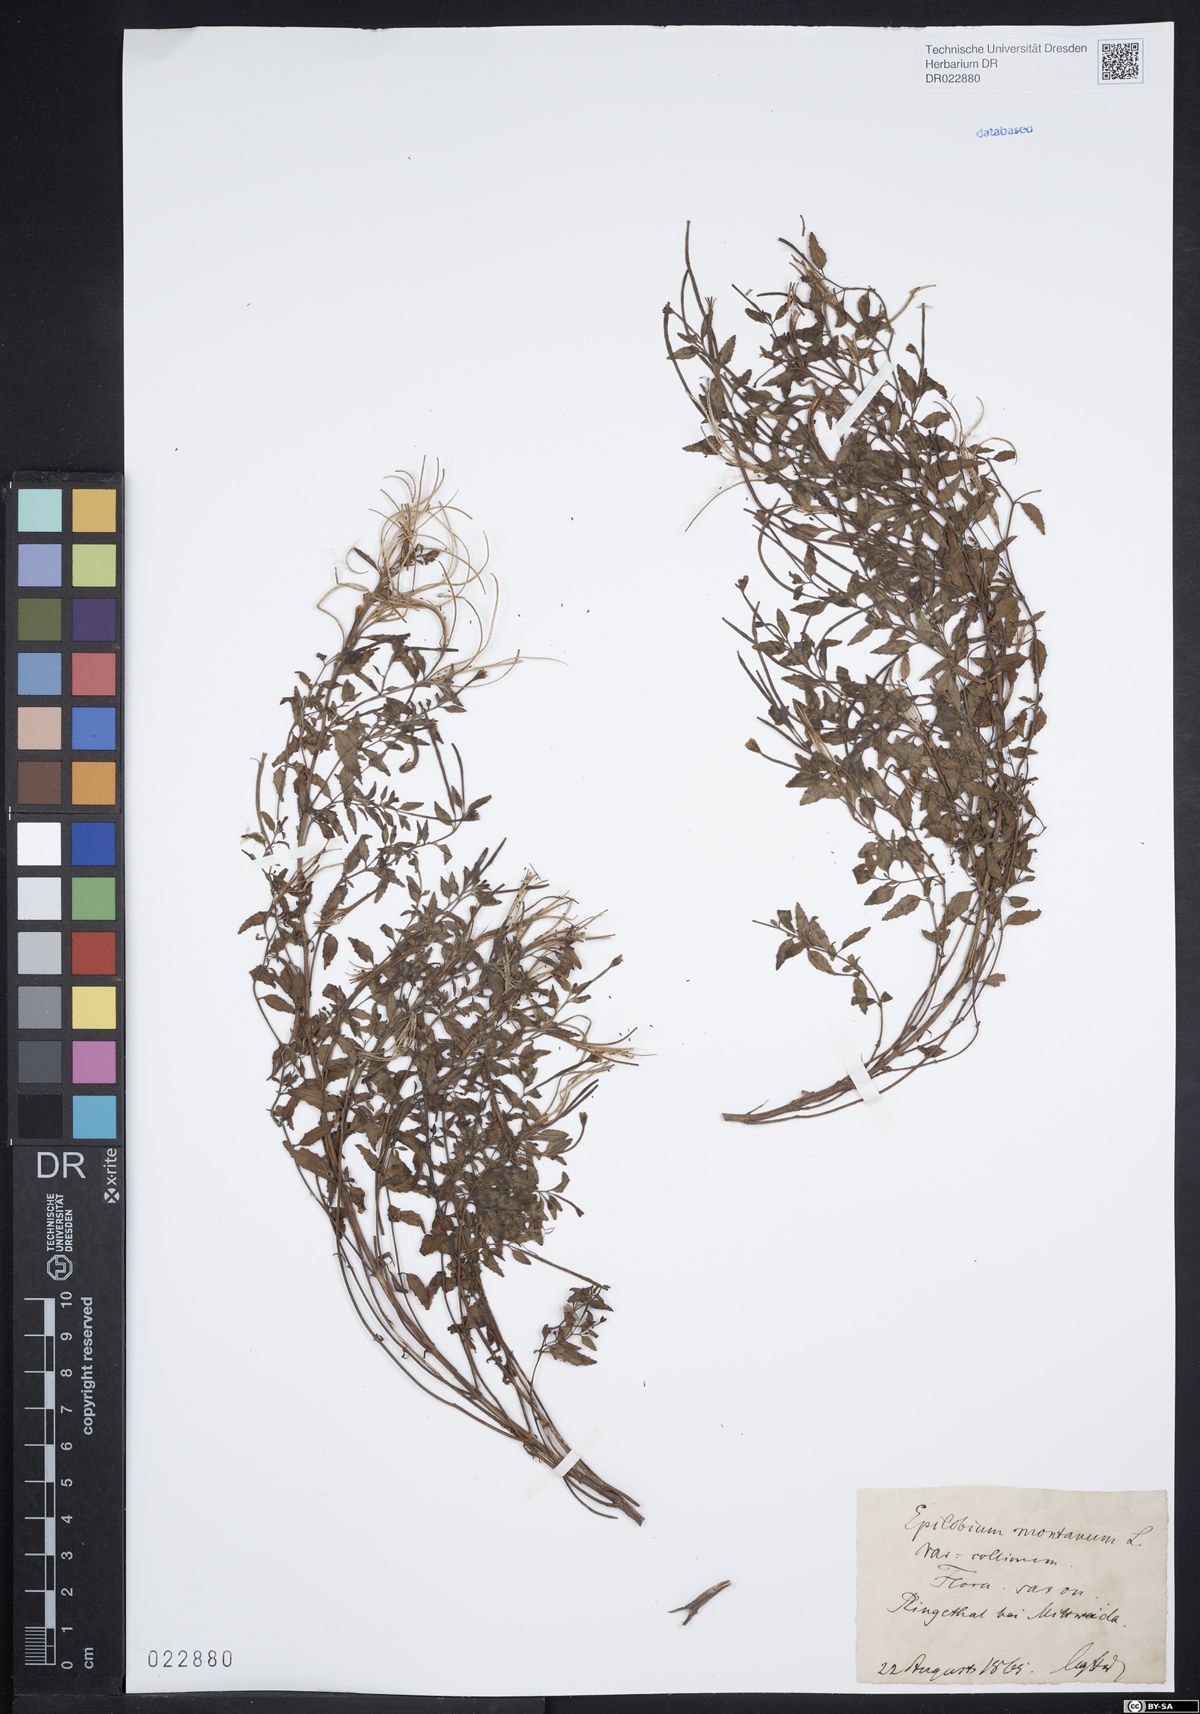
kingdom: Plantae
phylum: Tracheophyta
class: Magnoliopsida
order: Myrtales
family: Onagraceae
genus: Epilobium
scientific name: Epilobium collinum
